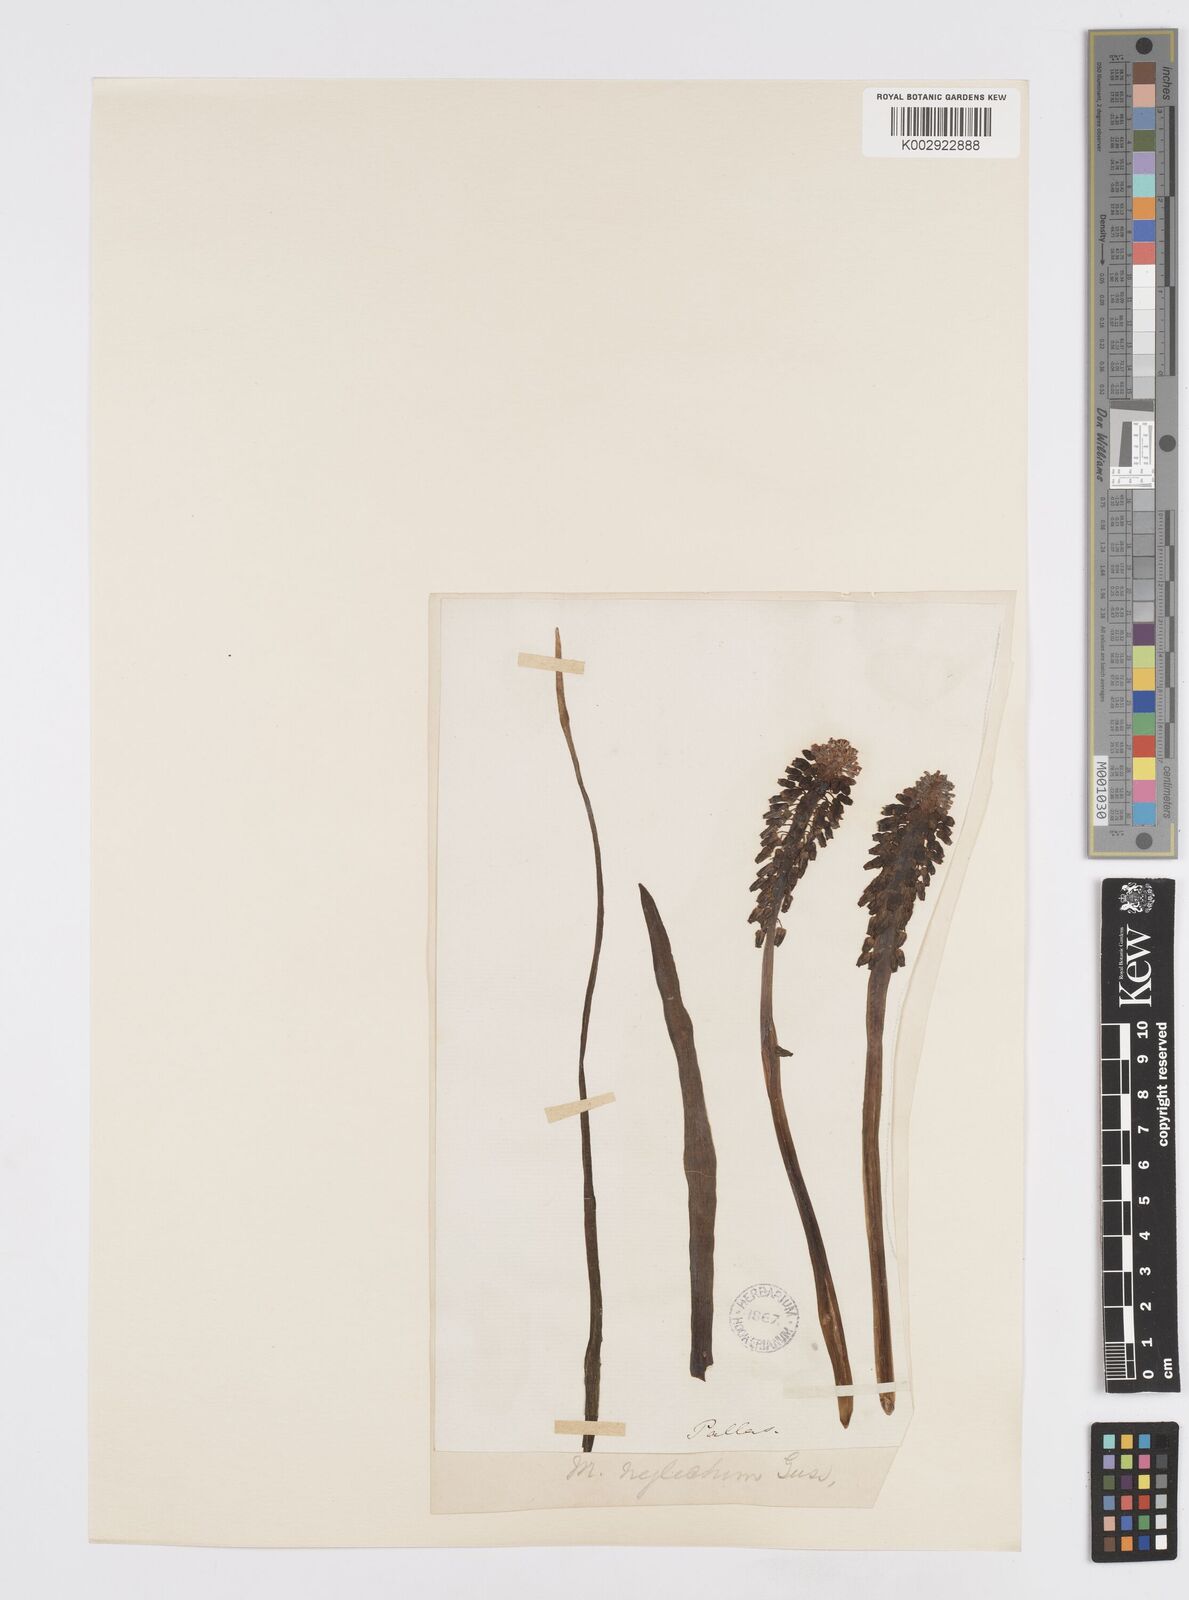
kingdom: Plantae
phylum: Tracheophyta
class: Liliopsida
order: Asparagales
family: Asparagaceae
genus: Muscari
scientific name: Muscari neglectum
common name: Grape-hyacinth
